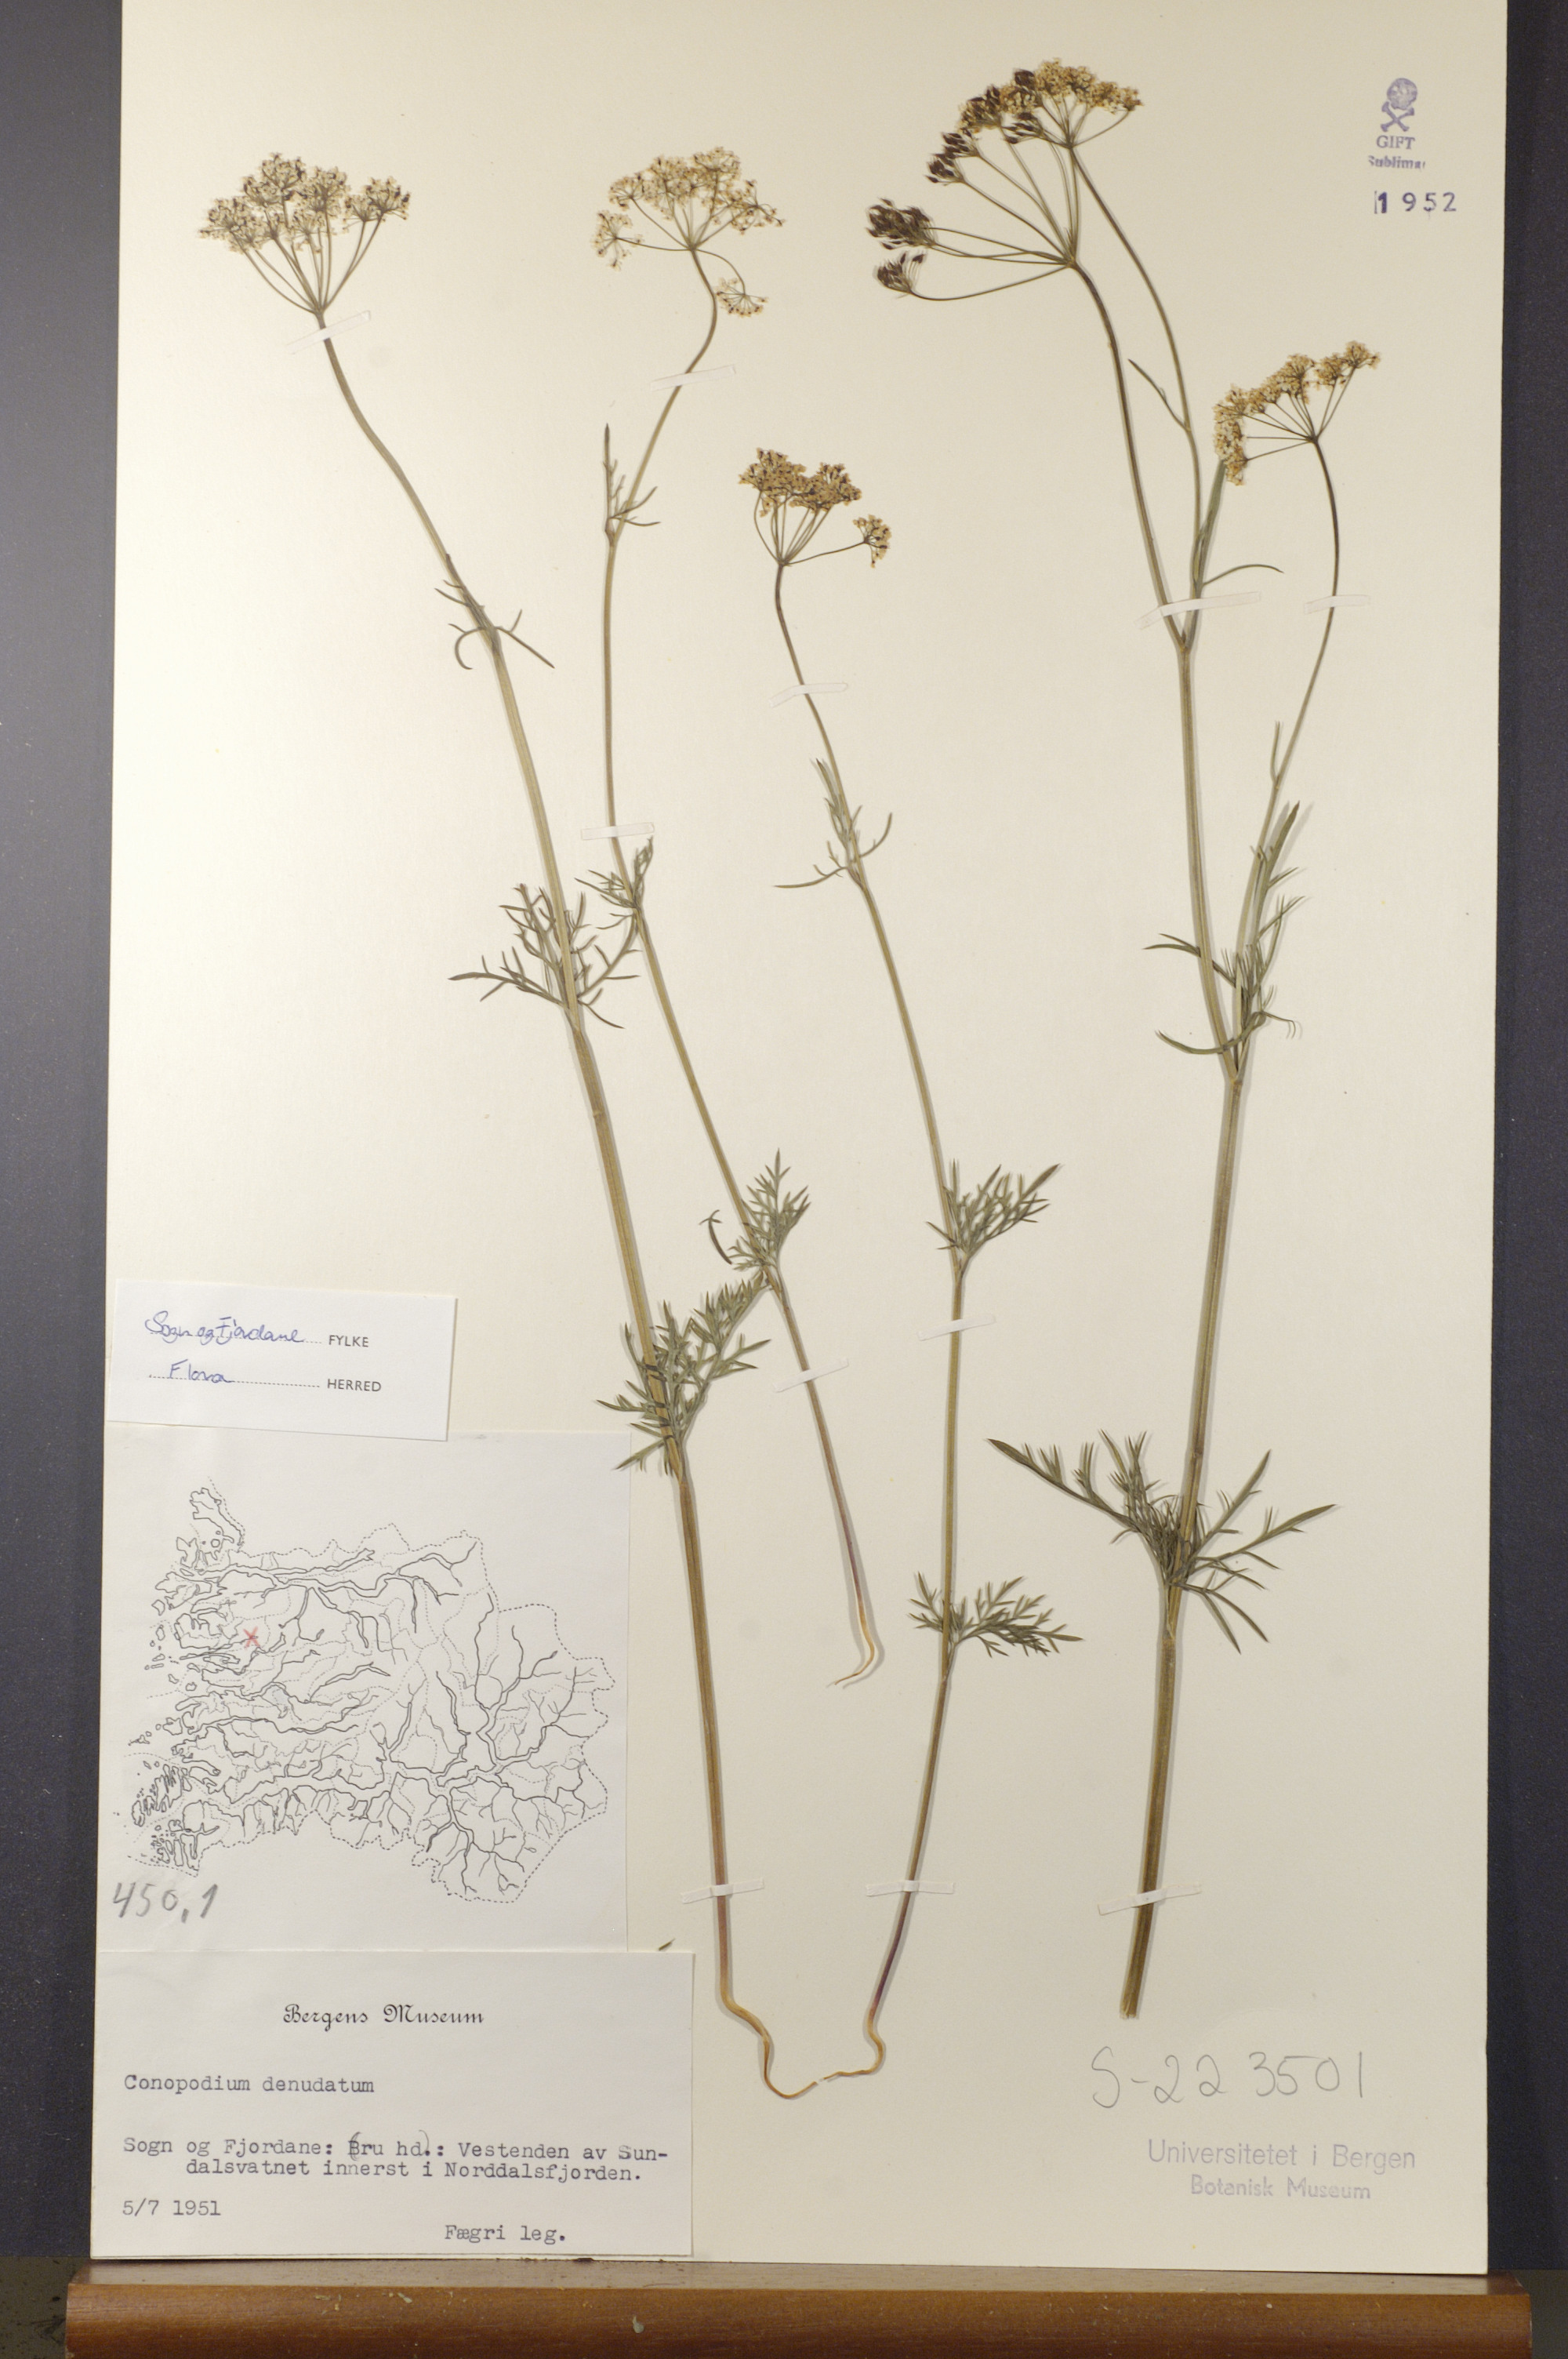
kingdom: Plantae
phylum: Tracheophyta
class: Magnoliopsida
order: Apiales
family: Apiaceae
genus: Conopodium
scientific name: Conopodium majus
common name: Pignut
